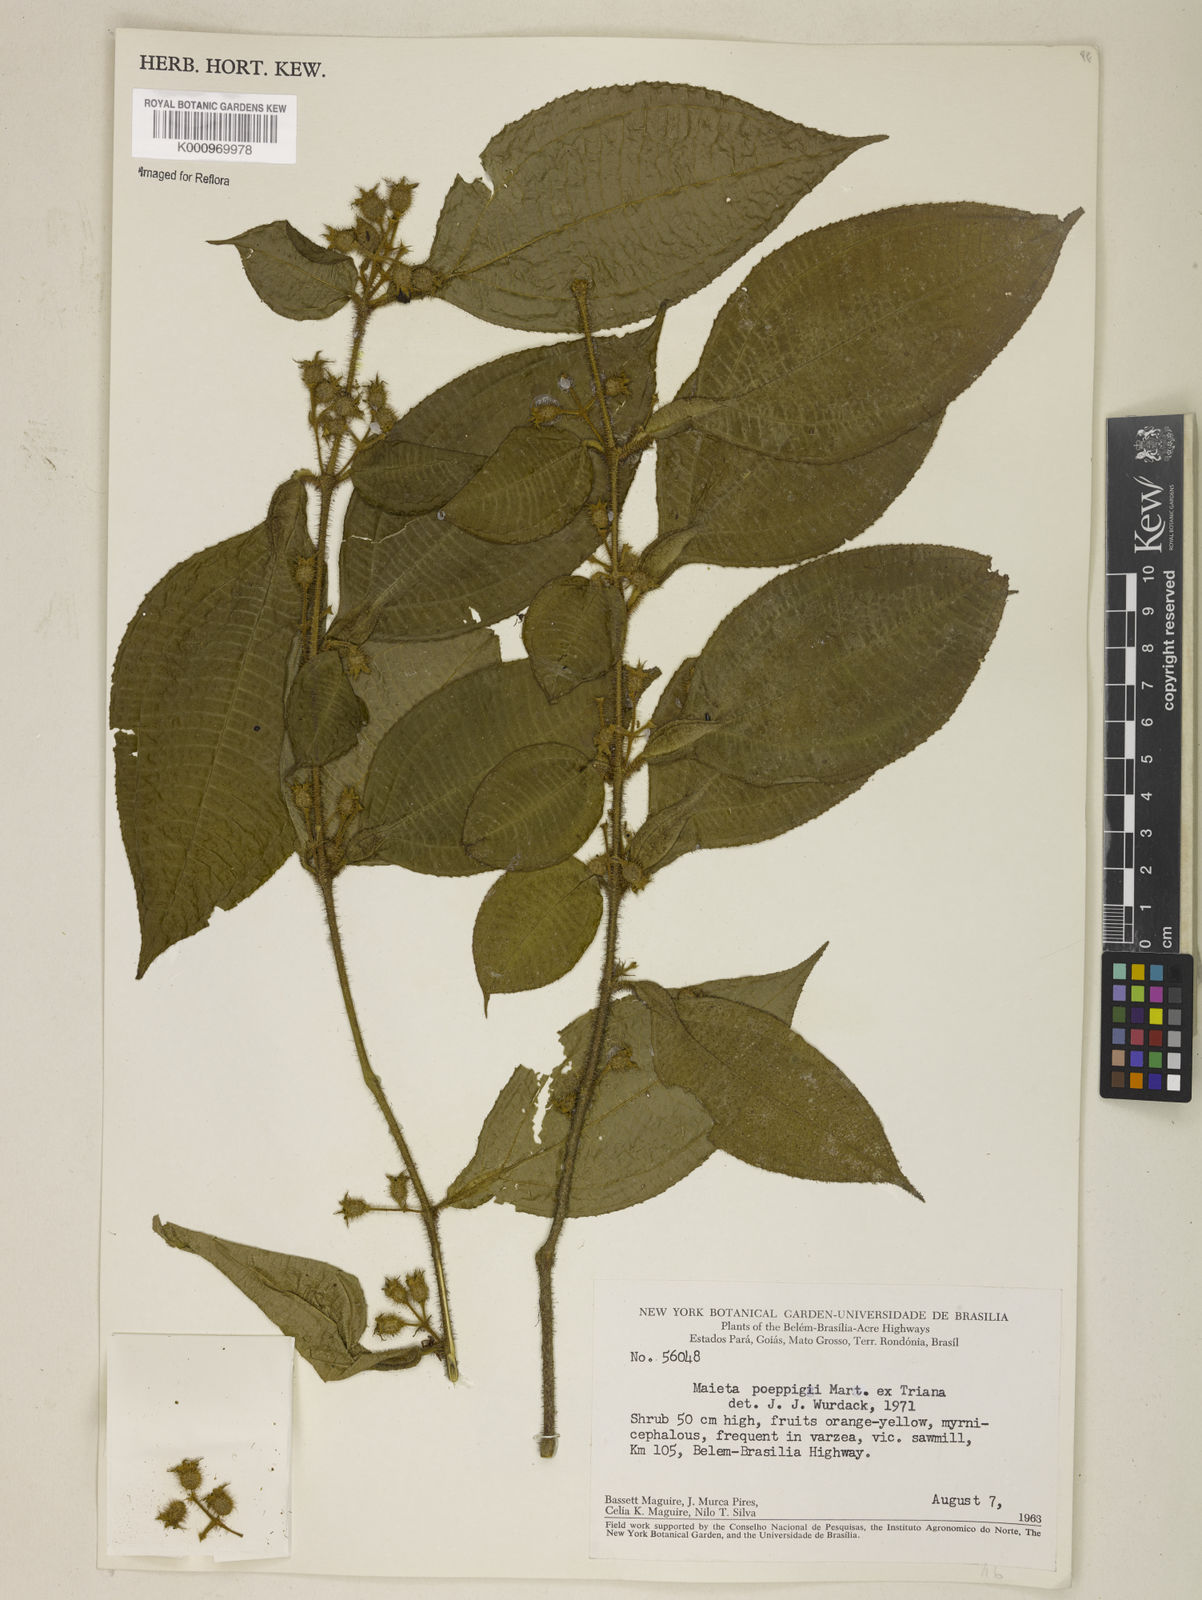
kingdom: Plantae
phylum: Tracheophyta
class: Magnoliopsida
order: Myrtales
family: Melastomataceae
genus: Miconia
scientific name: Miconia alternidomatia
